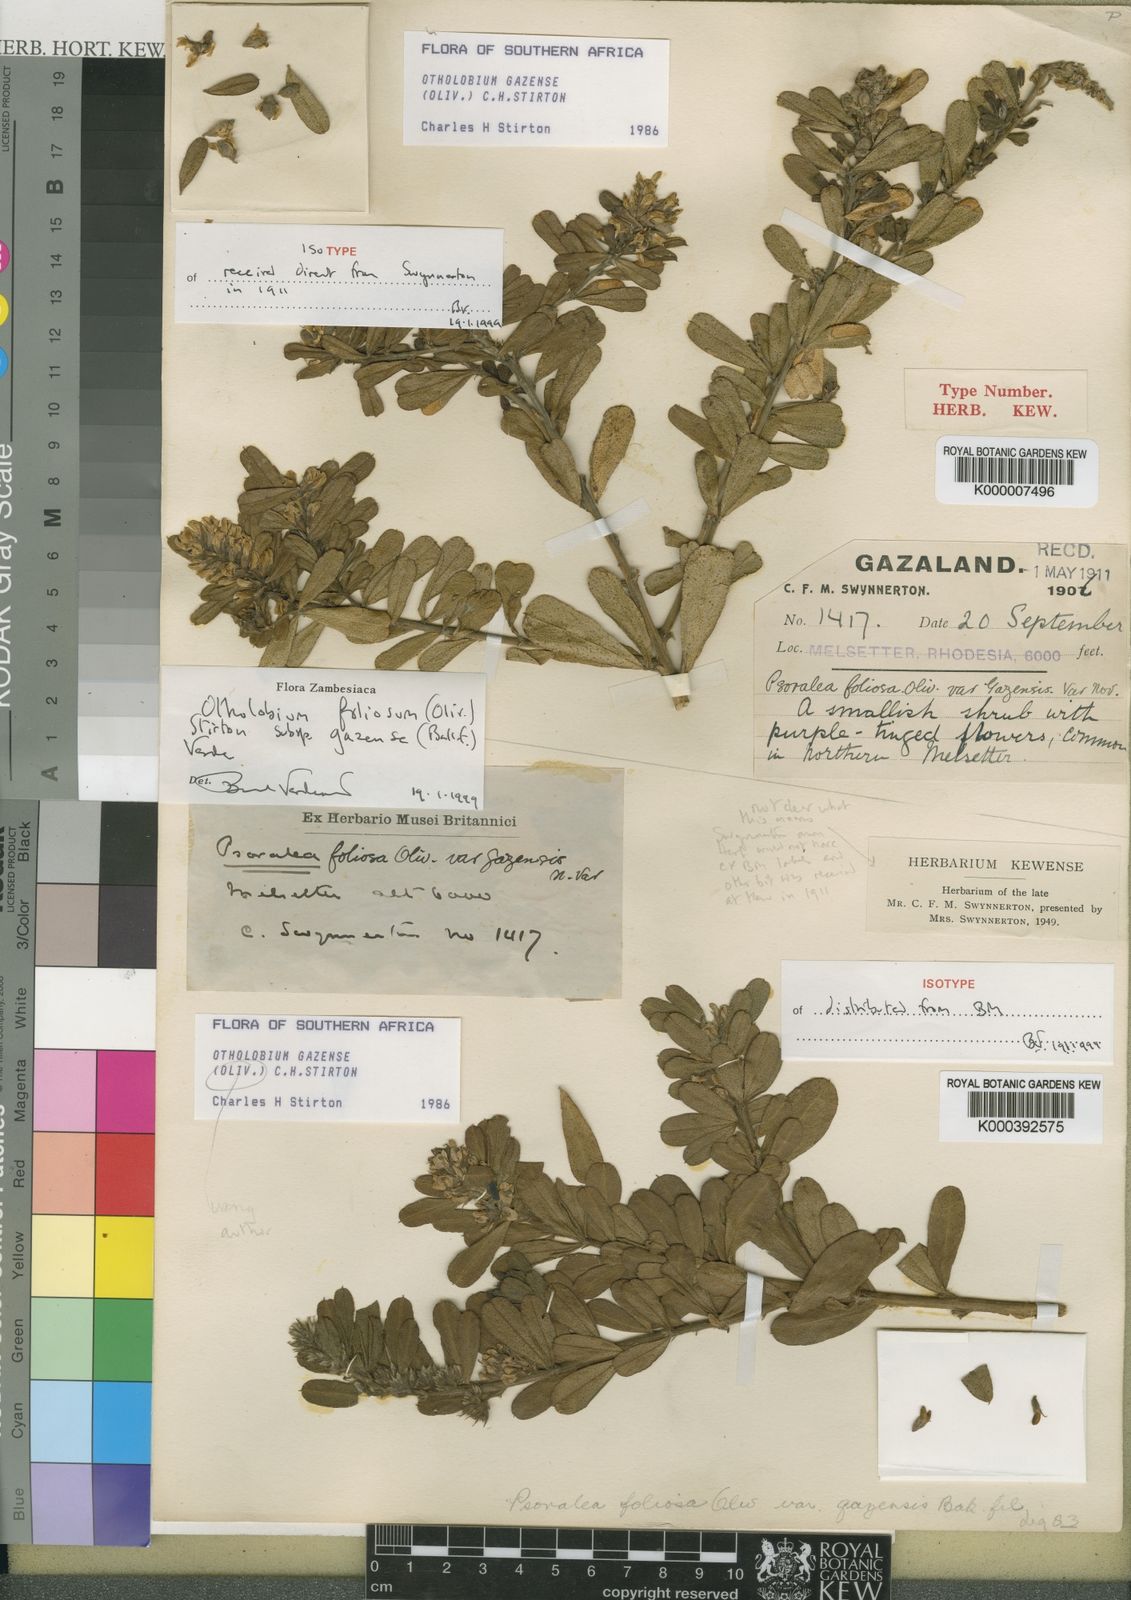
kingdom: Plantae
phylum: Tracheophyta
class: Magnoliopsida
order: Fabales
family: Fabaceae
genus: Psoralea
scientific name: Psoralea foliosa
